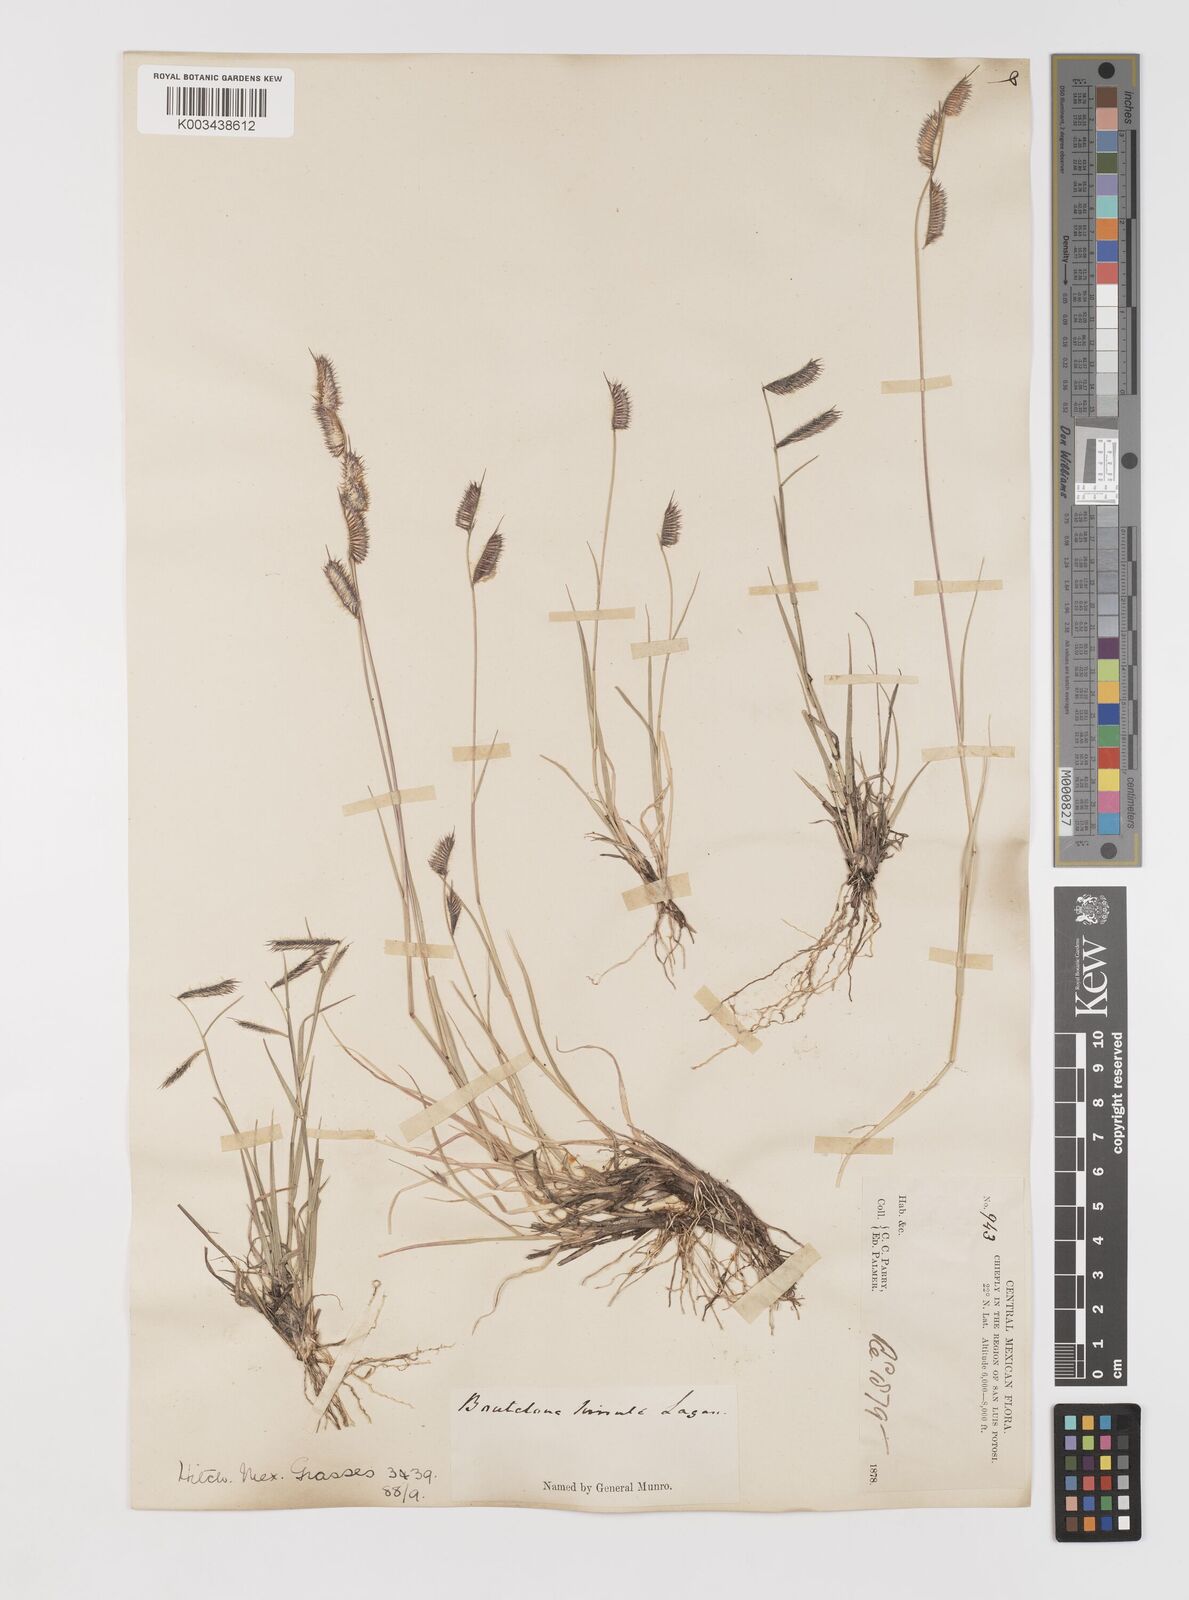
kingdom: Plantae
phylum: Tracheophyta
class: Liliopsida
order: Poales
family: Poaceae
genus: Bouteloua
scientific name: Bouteloua hirsuta
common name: Hairy grama
